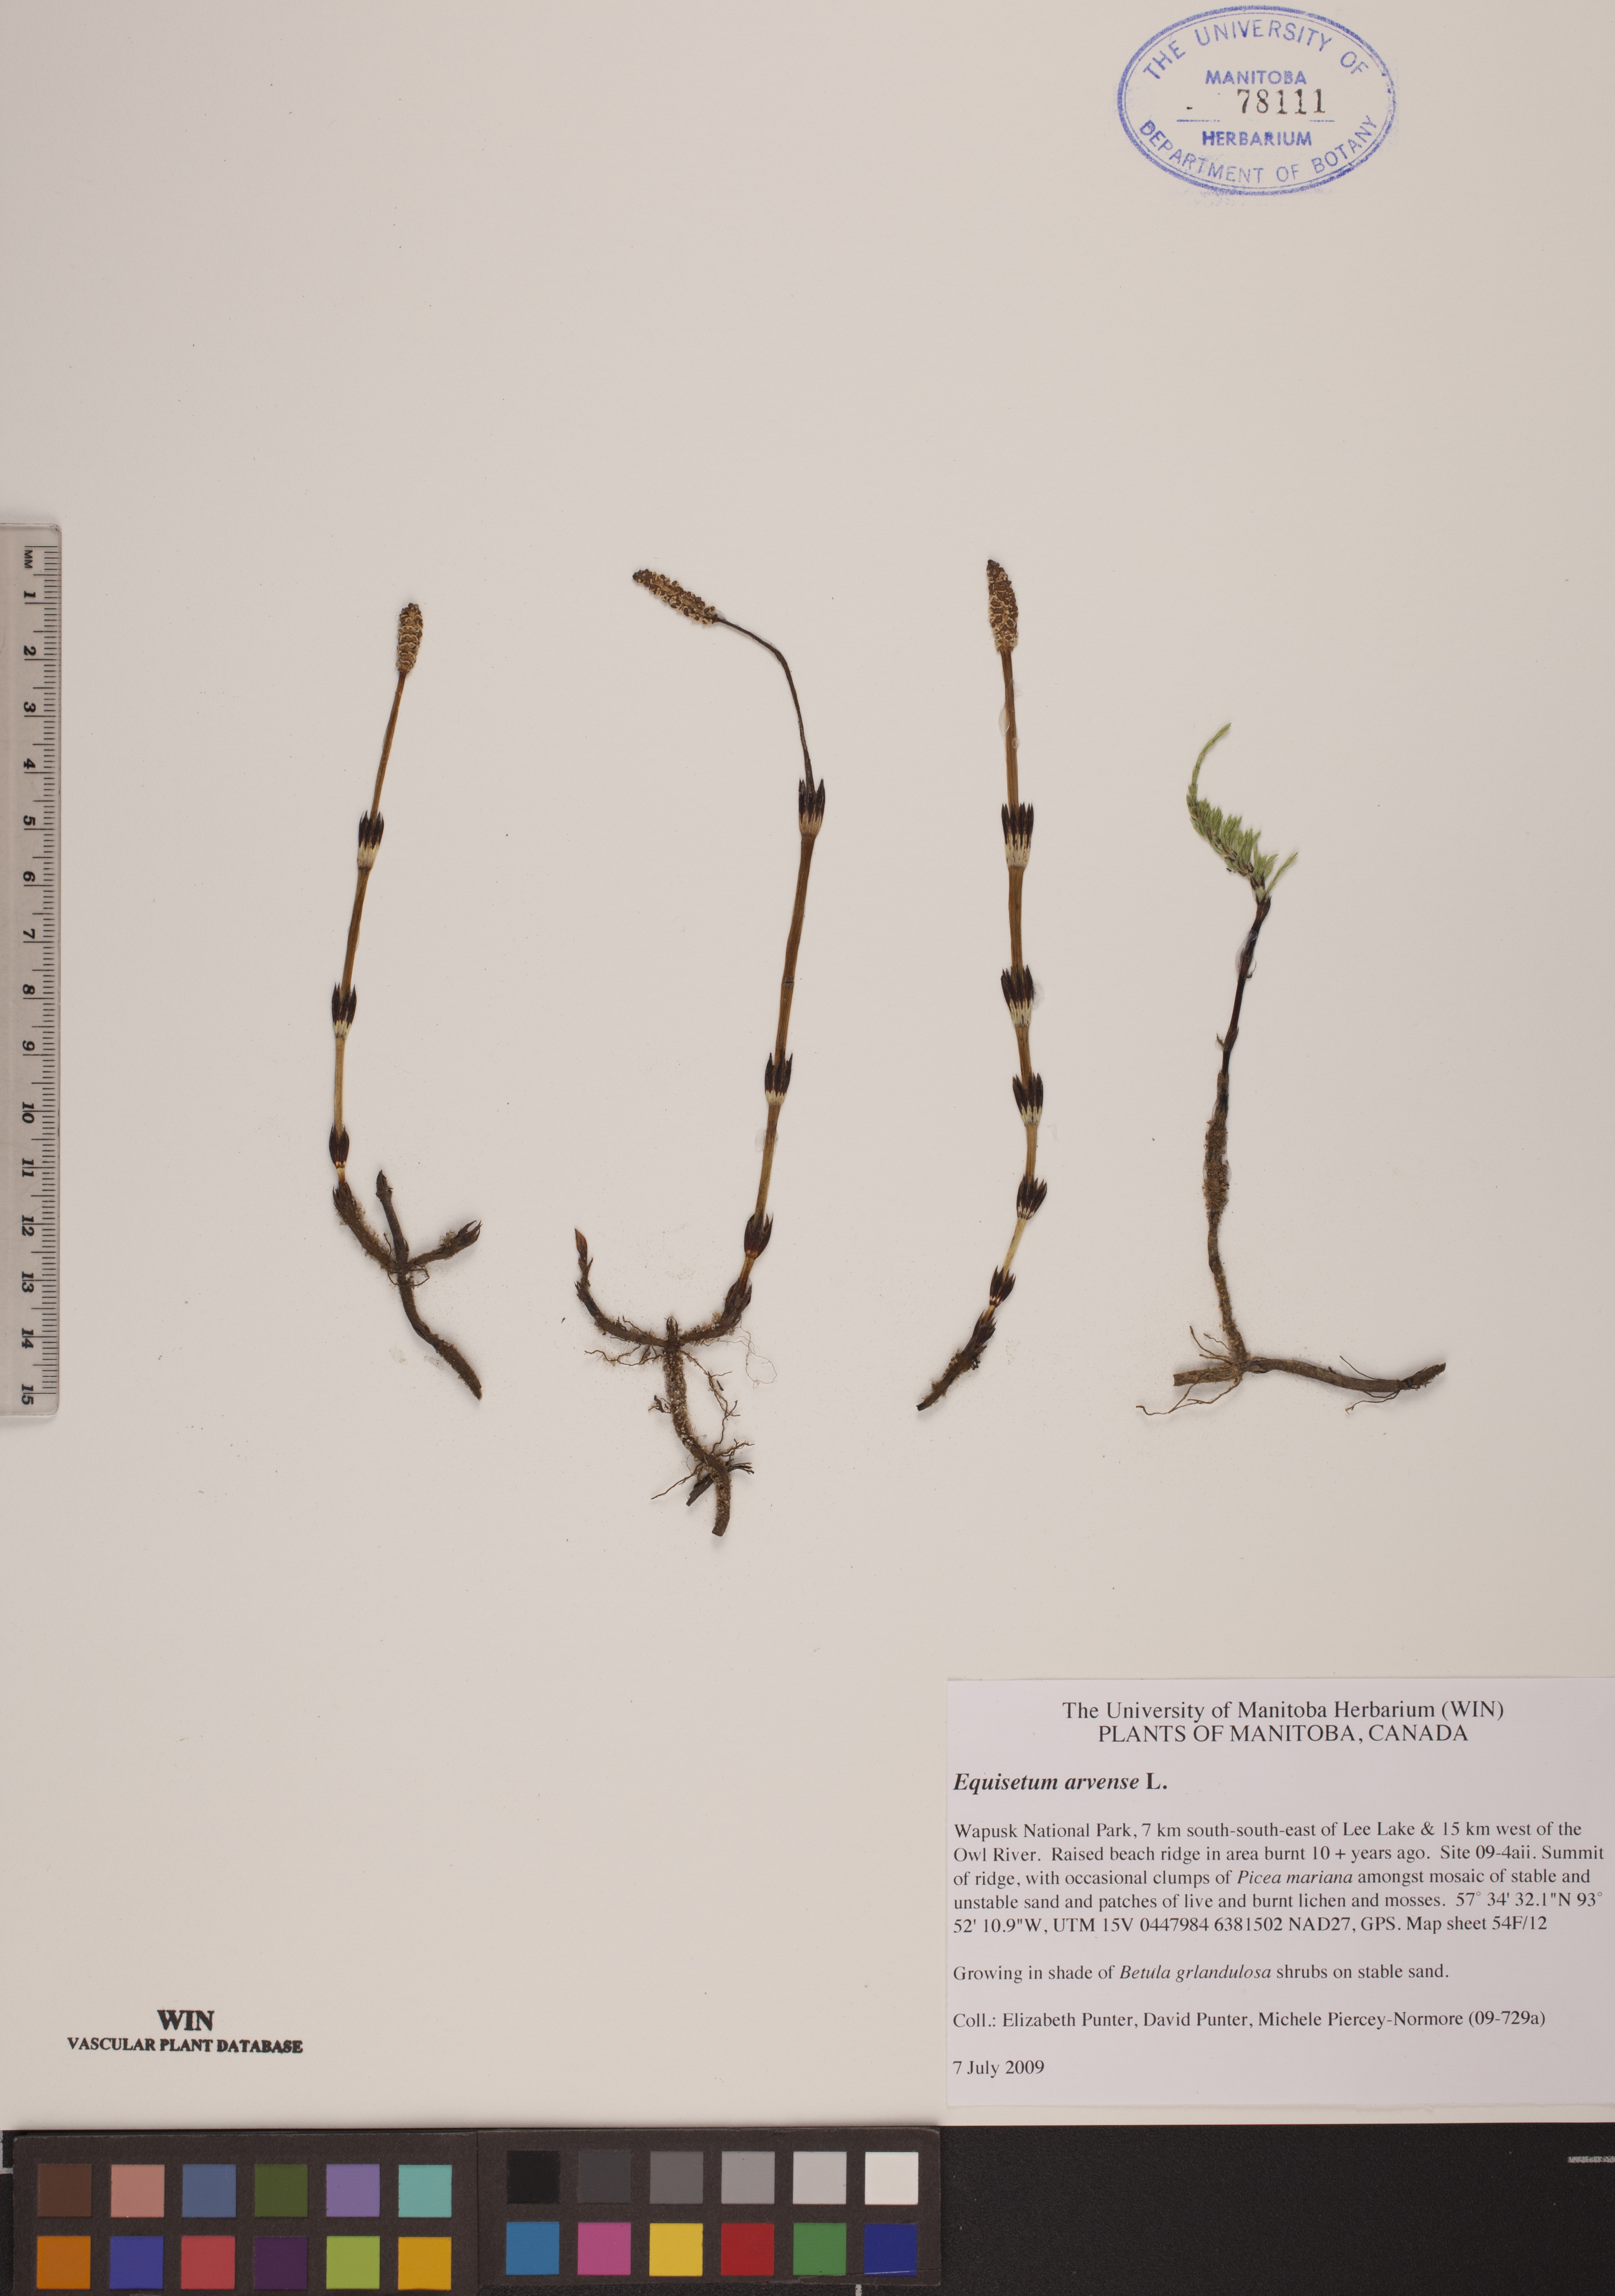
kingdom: Plantae
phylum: Tracheophyta
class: Polypodiopsida
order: Equisetales
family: Equisetaceae
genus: Equisetum
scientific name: Equisetum arvense
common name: Field horsetail
